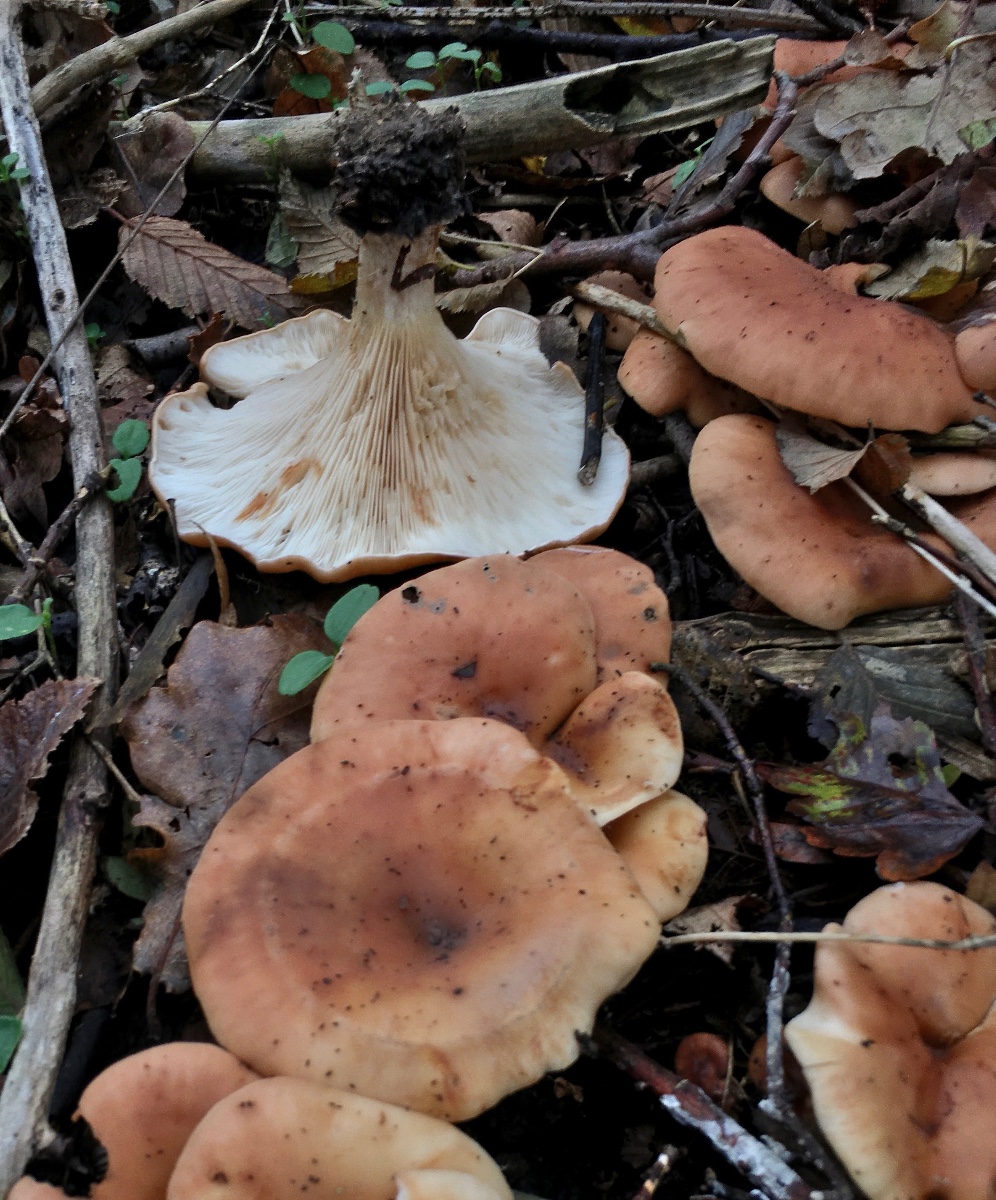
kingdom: Fungi
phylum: Basidiomycota
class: Agaricomycetes
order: Agaricales
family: Tricholomataceae
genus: Paralepista
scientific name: Paralepista flaccida
